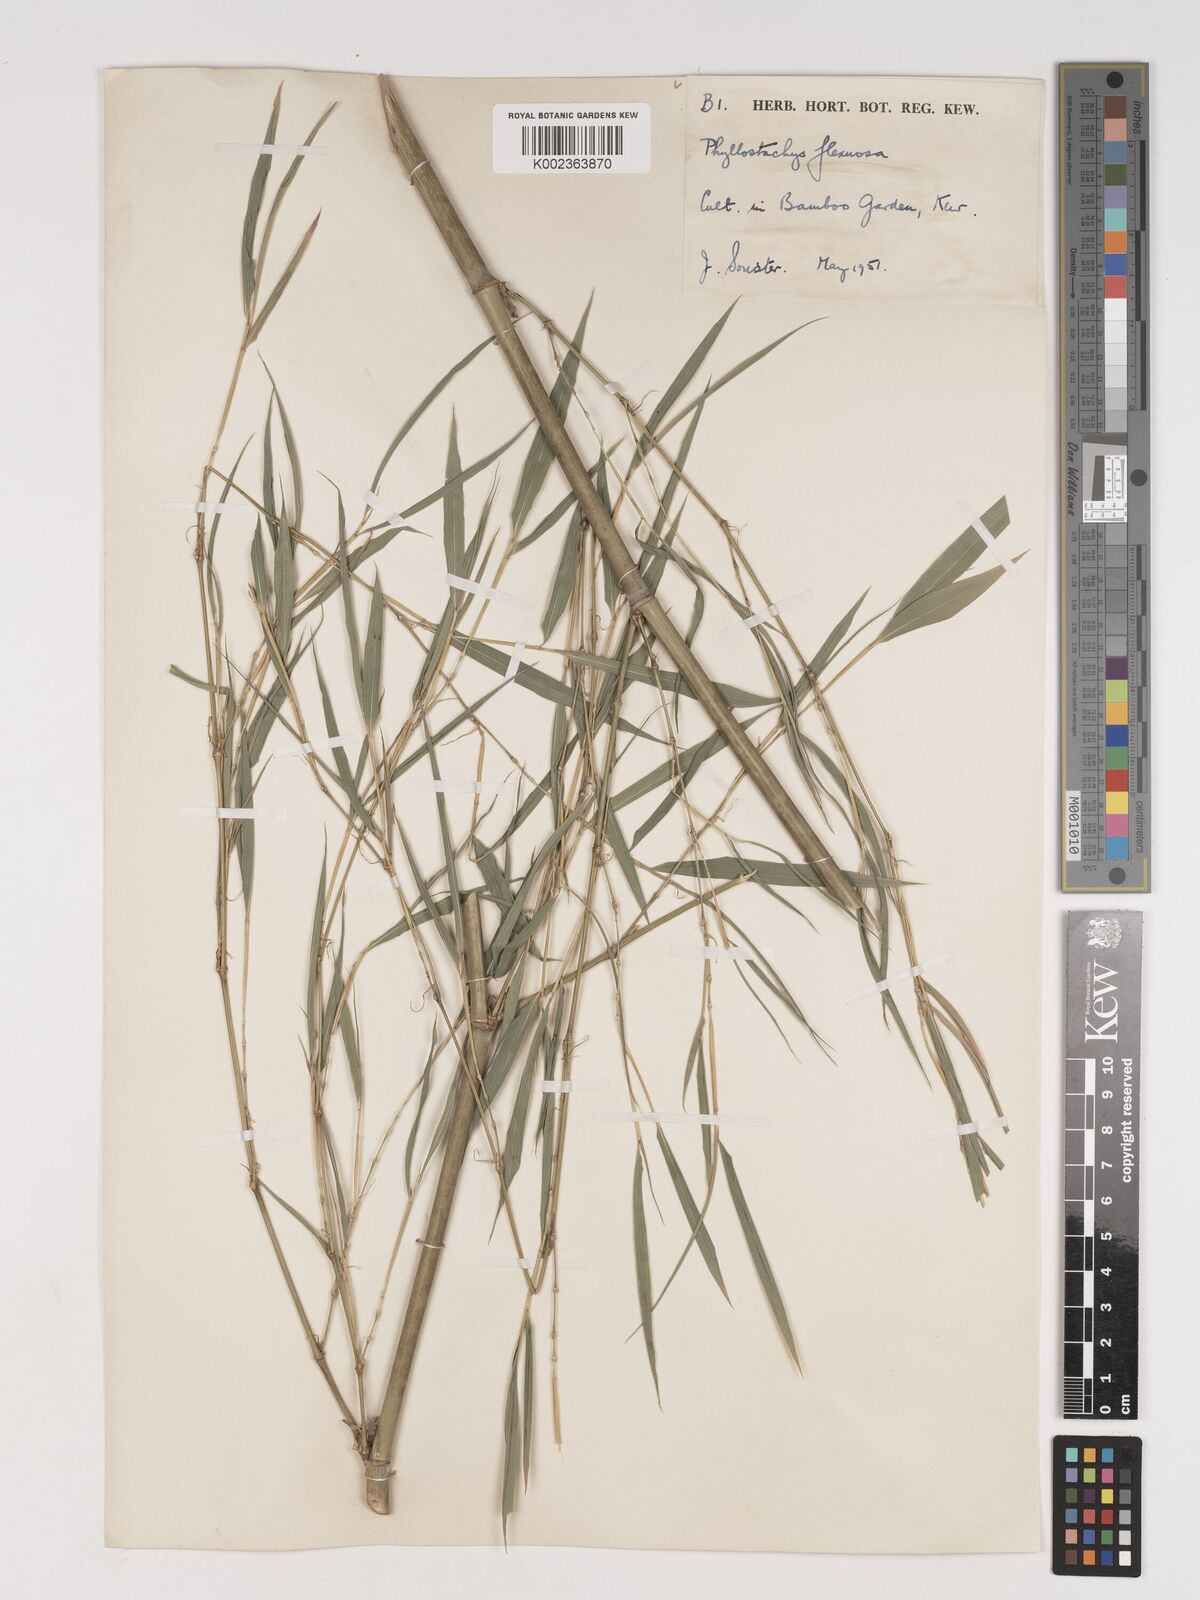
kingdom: Plantae
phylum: Tracheophyta
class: Liliopsida
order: Poales
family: Poaceae
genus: Phyllostachys
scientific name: Phyllostachys flexuosa
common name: Drooping timber bamboo
